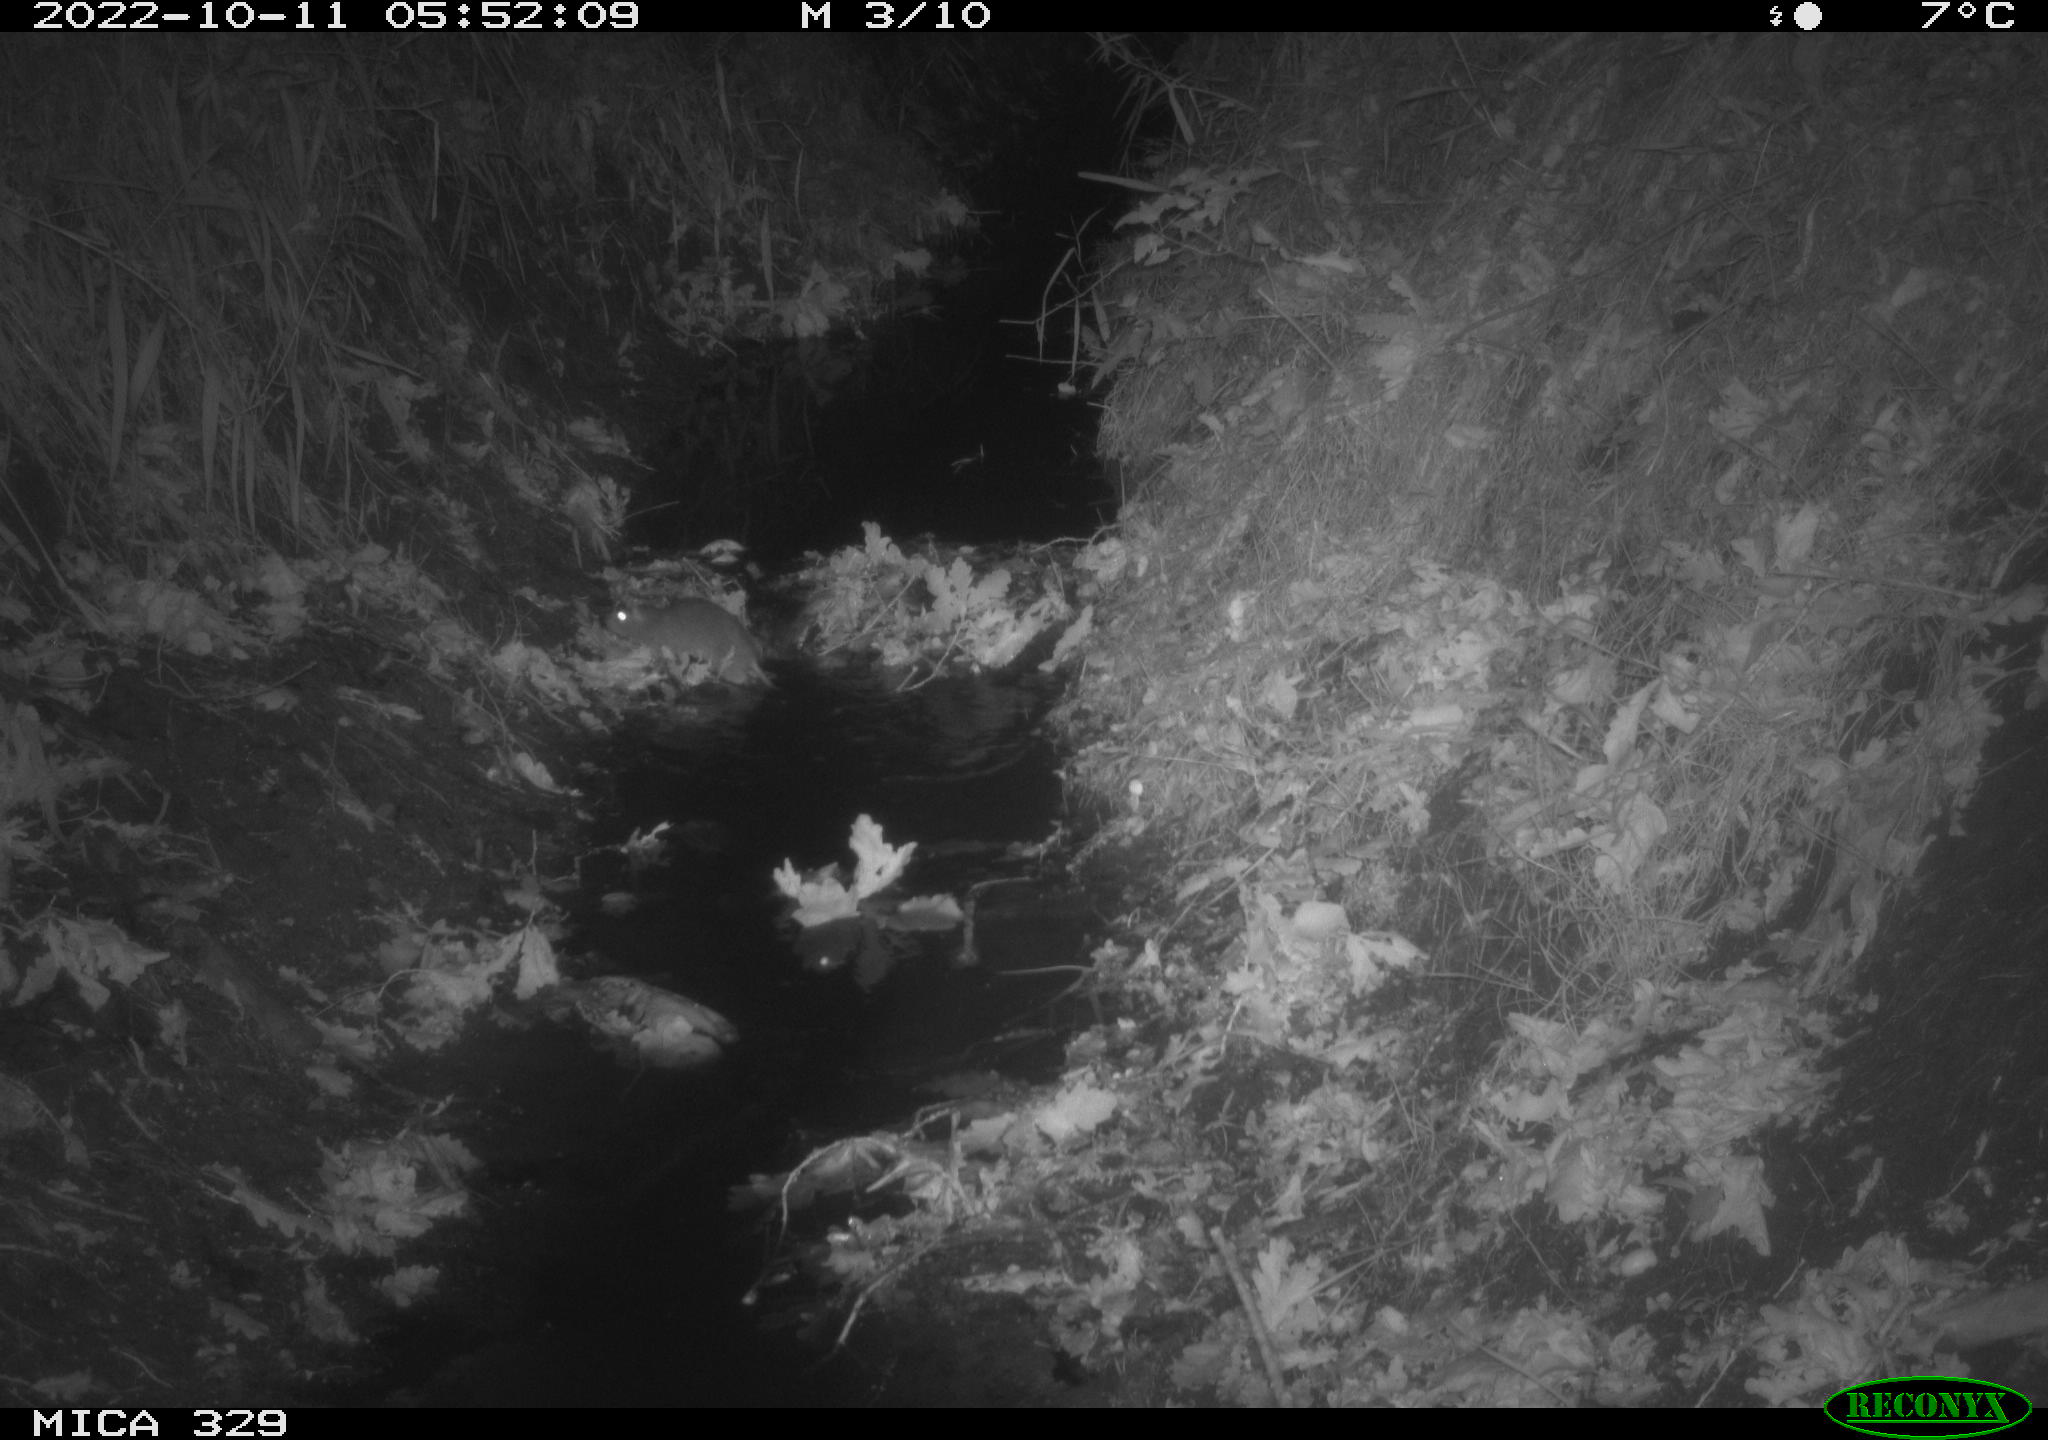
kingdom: Animalia
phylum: Chordata
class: Mammalia
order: Rodentia
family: Muridae
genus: Rattus
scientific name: Rattus norvegicus
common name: Brown rat
